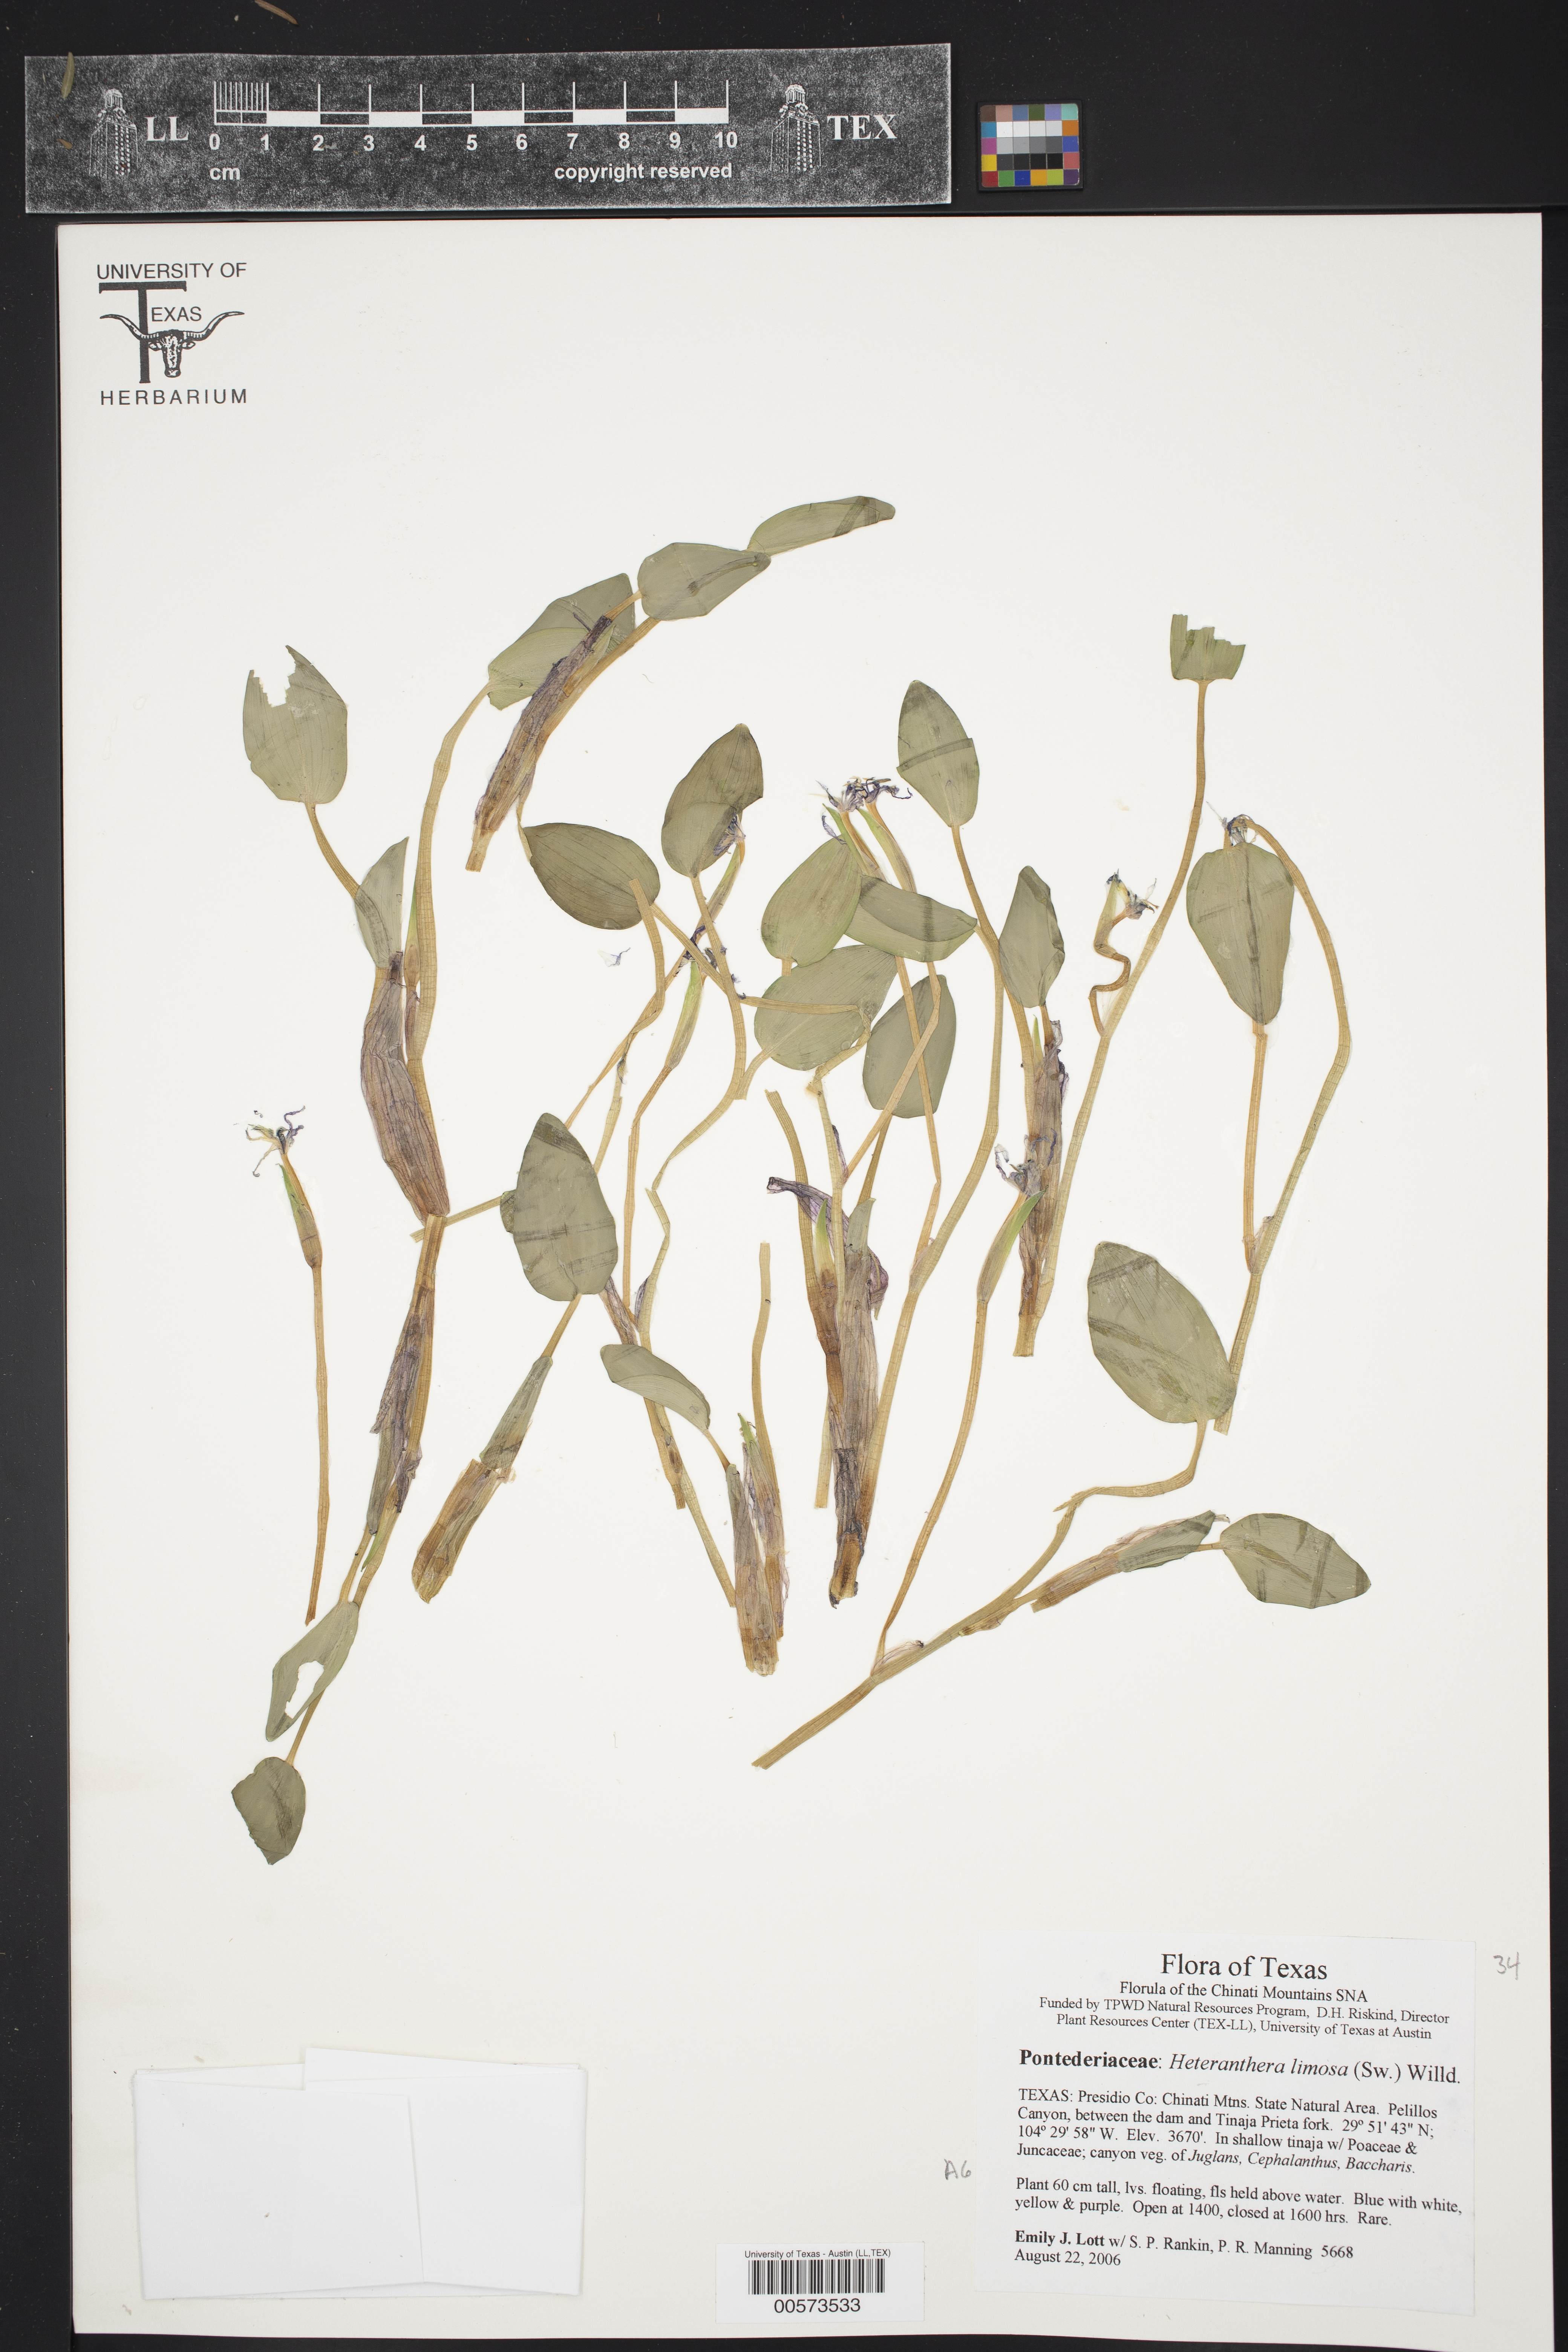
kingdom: Plantae
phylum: Tracheophyta
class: Liliopsida
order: Commelinales
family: Pontederiaceae
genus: Heteranthera
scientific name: Heteranthera limosa
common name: Blue mud-plantain
